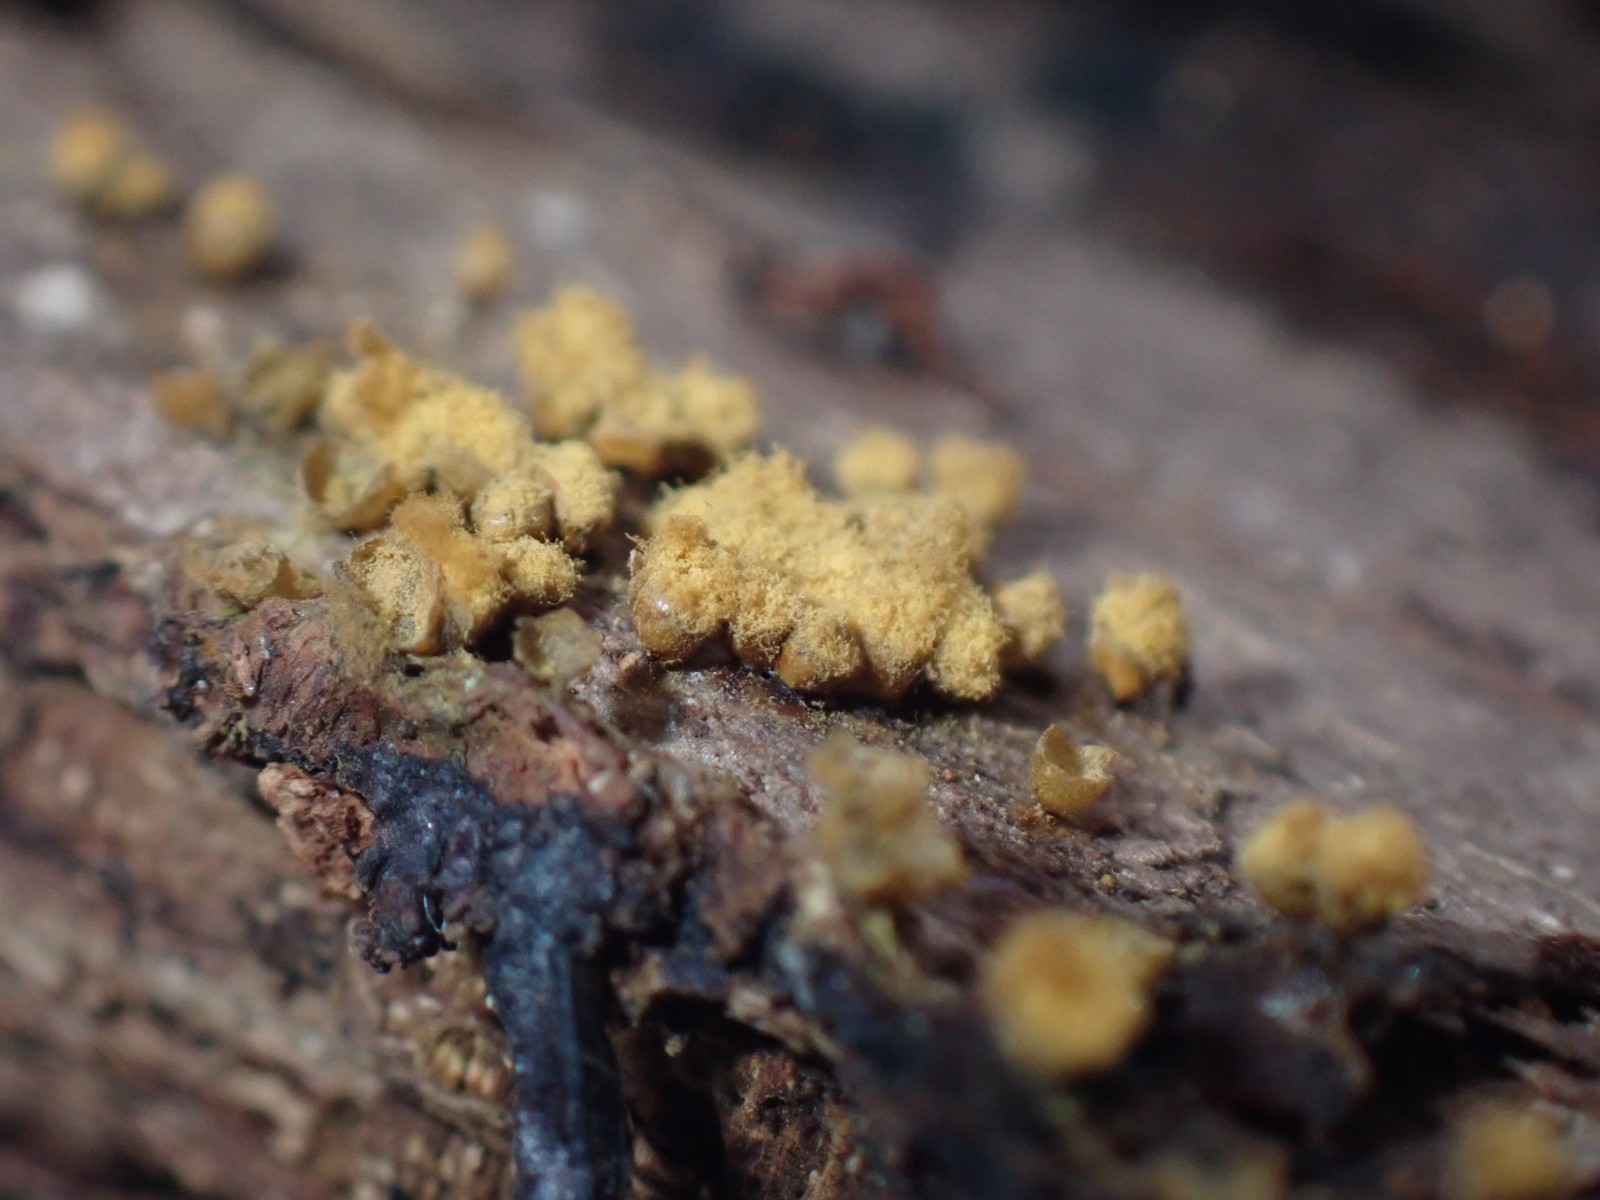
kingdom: Protozoa
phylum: Mycetozoa
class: Myxomycetes
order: Trichiales
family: Trichiaceae
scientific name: Trichiaceae
